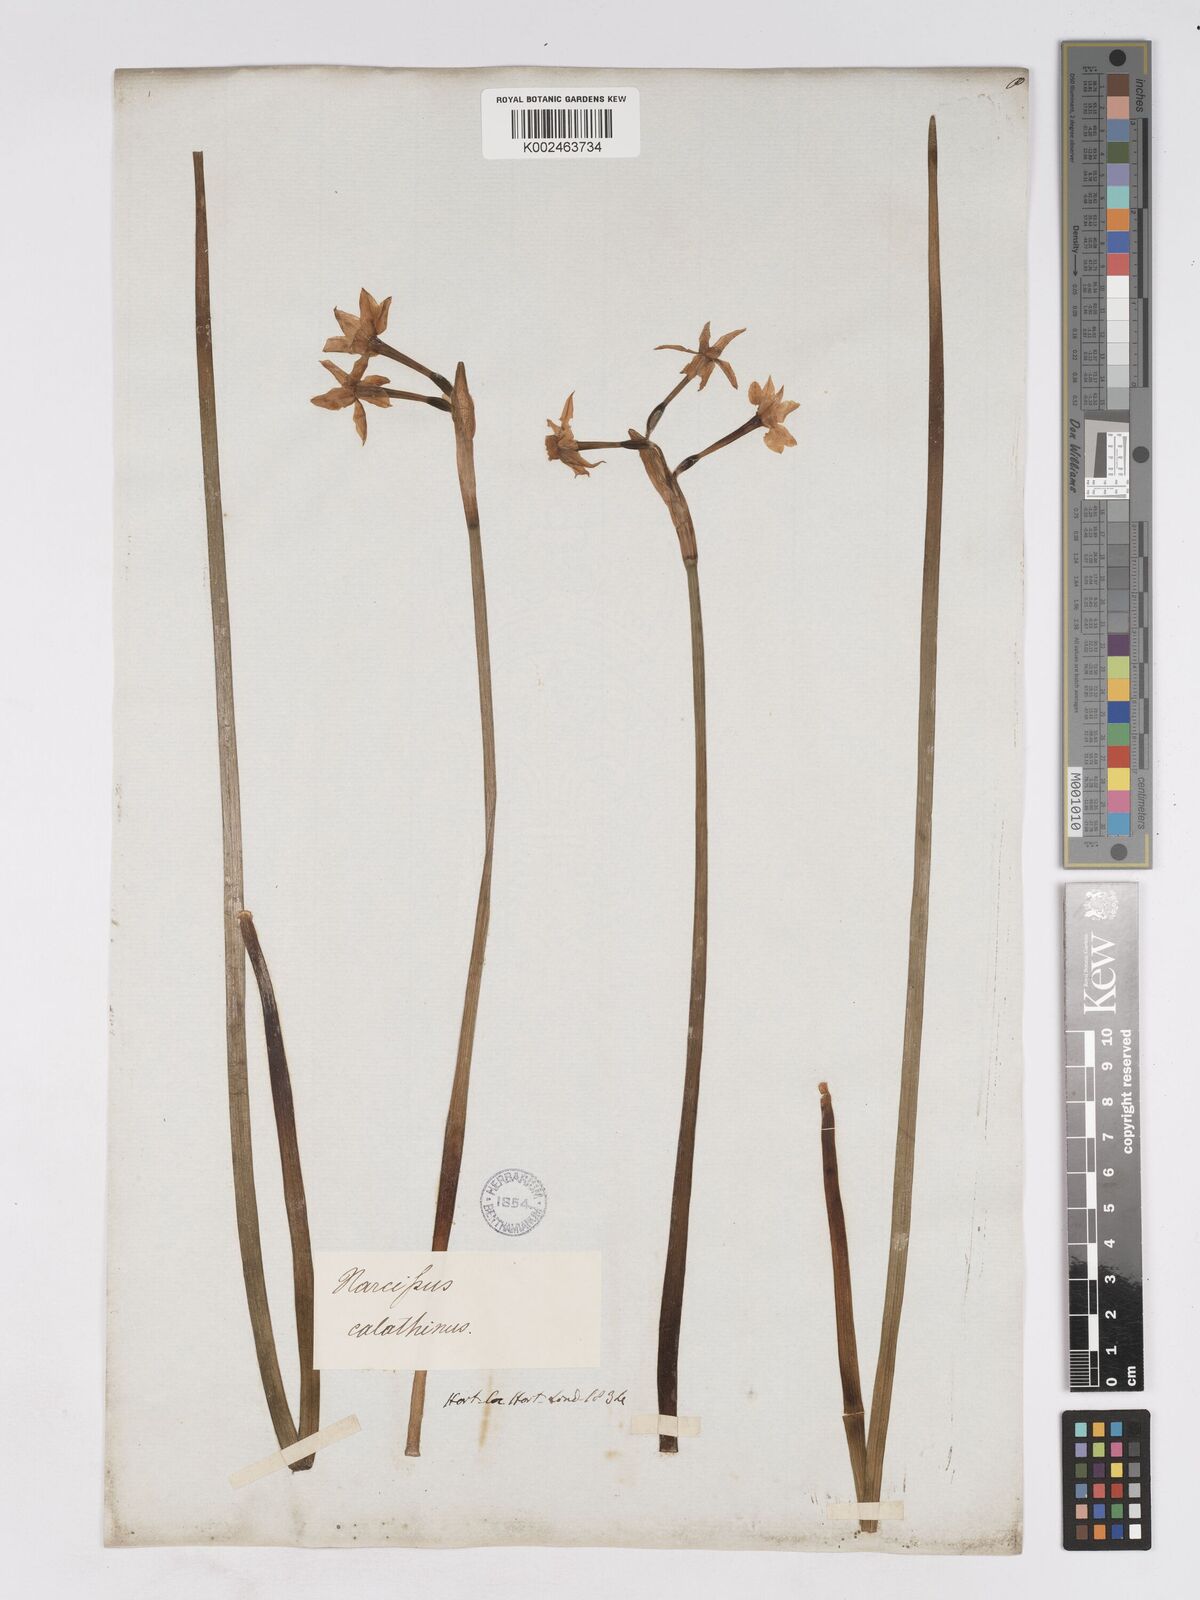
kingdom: Plantae
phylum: Tracheophyta
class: Liliopsida
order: Asparagales
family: Amaryllidaceae
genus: Narcissus
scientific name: Narcissus tazetta
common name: Bunch-flowered daffodil
